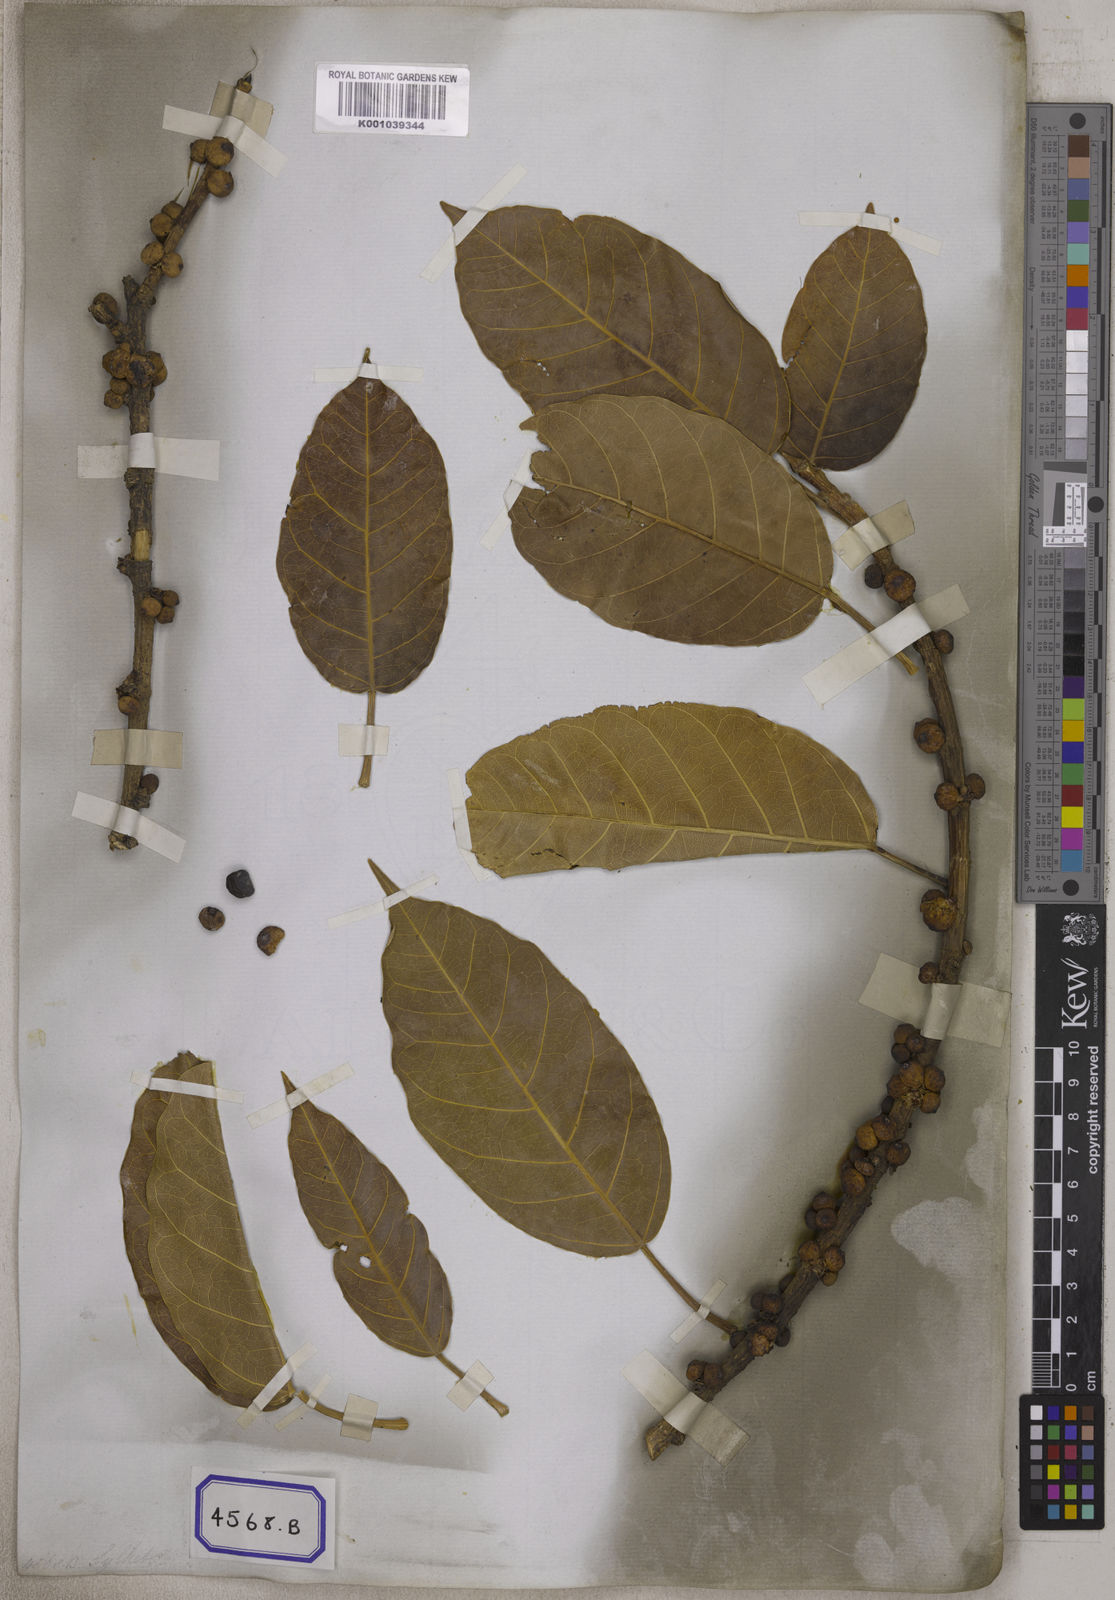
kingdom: Plantae
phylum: Tracheophyta
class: Magnoliopsida
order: Rosales
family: Moraceae
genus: Ficus
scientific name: Ficus
